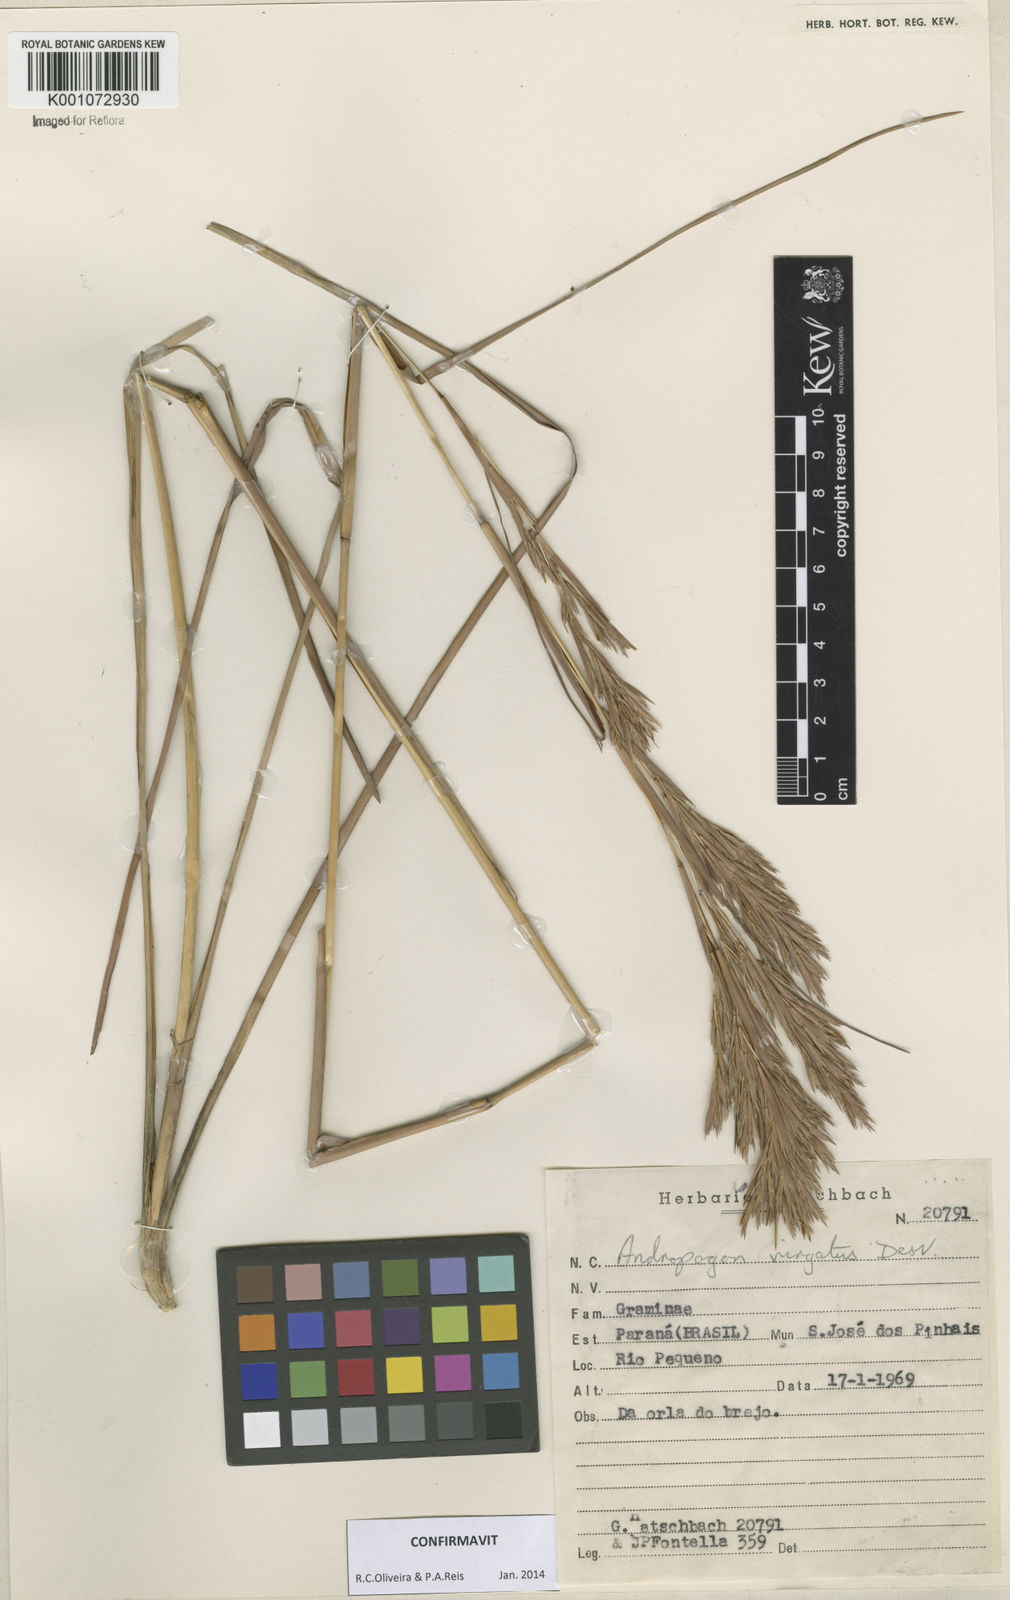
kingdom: Plantae
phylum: Tracheophyta
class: Liliopsida
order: Poales
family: Poaceae
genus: Andropogon
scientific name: Andropogon virgatus
